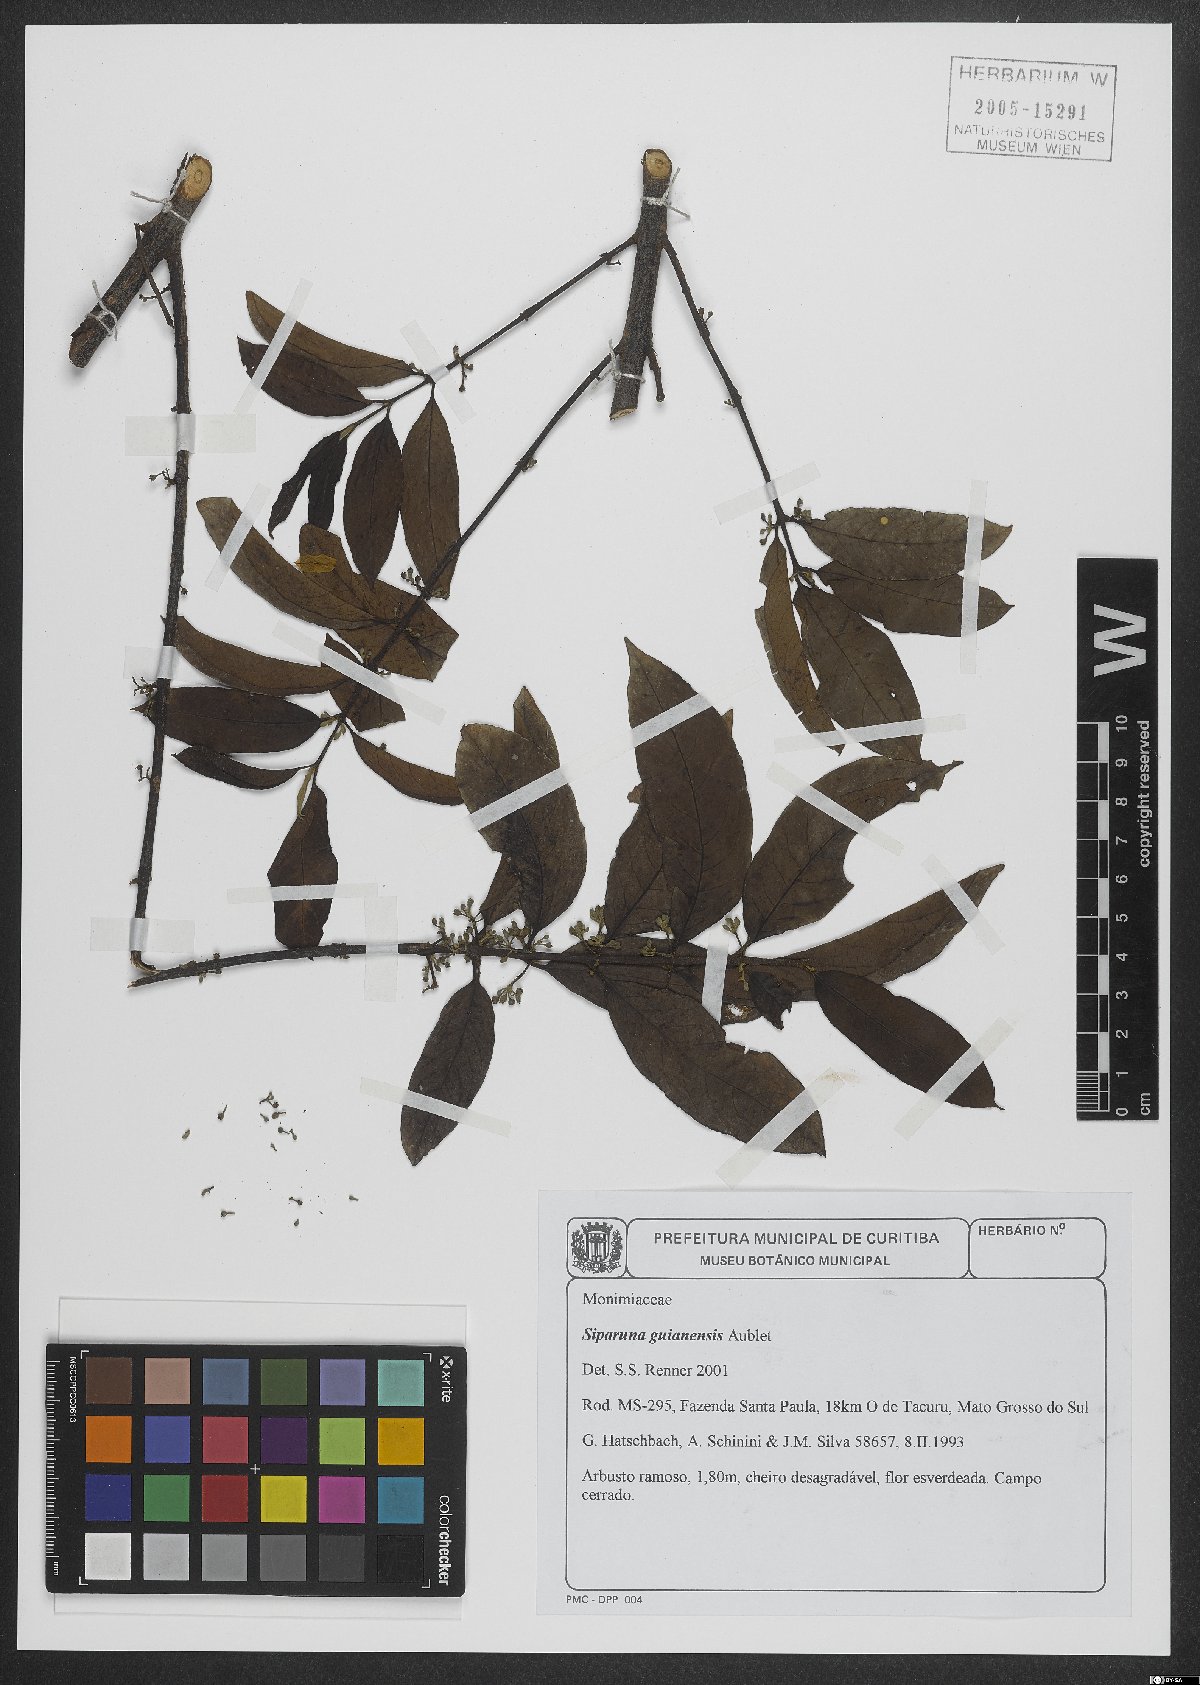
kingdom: Plantae
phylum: Tracheophyta
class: Magnoliopsida
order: Laurales
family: Siparunaceae
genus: Siparuna
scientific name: Siparuna guianensis
